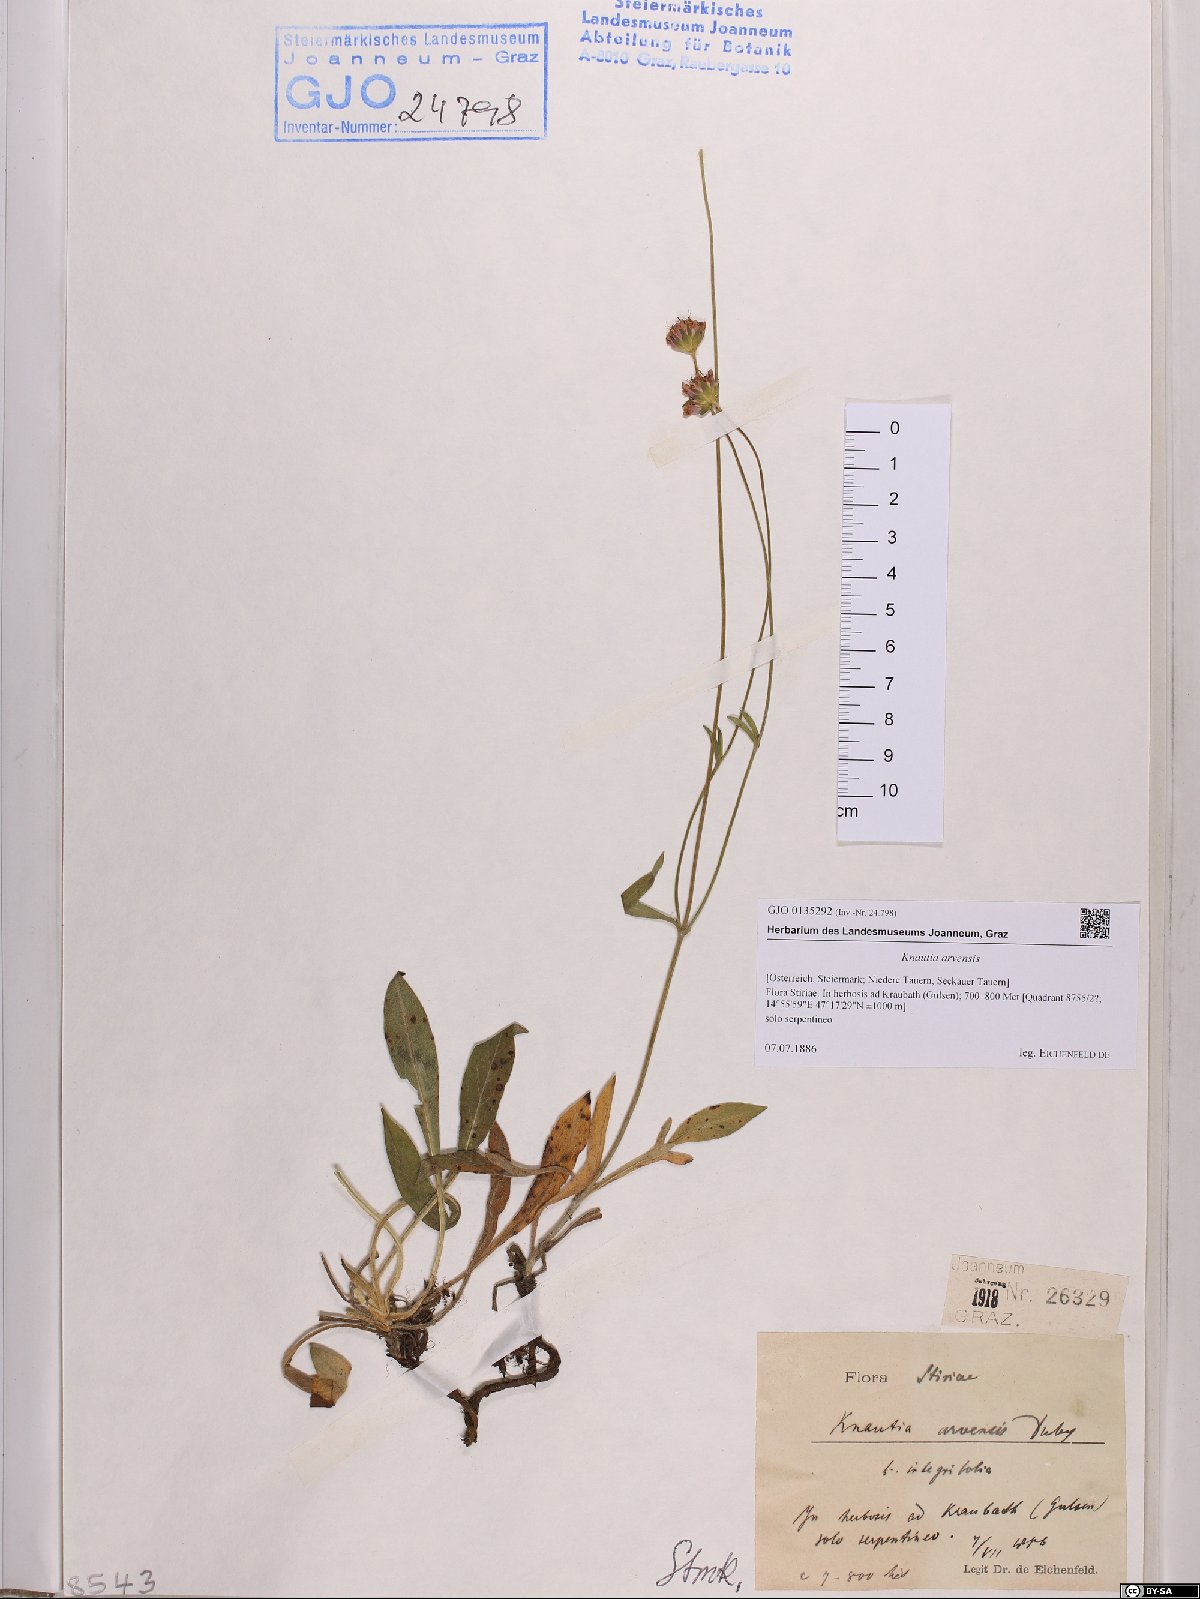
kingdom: Plantae
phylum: Tracheophyta
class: Magnoliopsida
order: Dipsacales
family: Caprifoliaceae
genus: Knautia
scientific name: Knautia arvensis
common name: Field scabiosa
